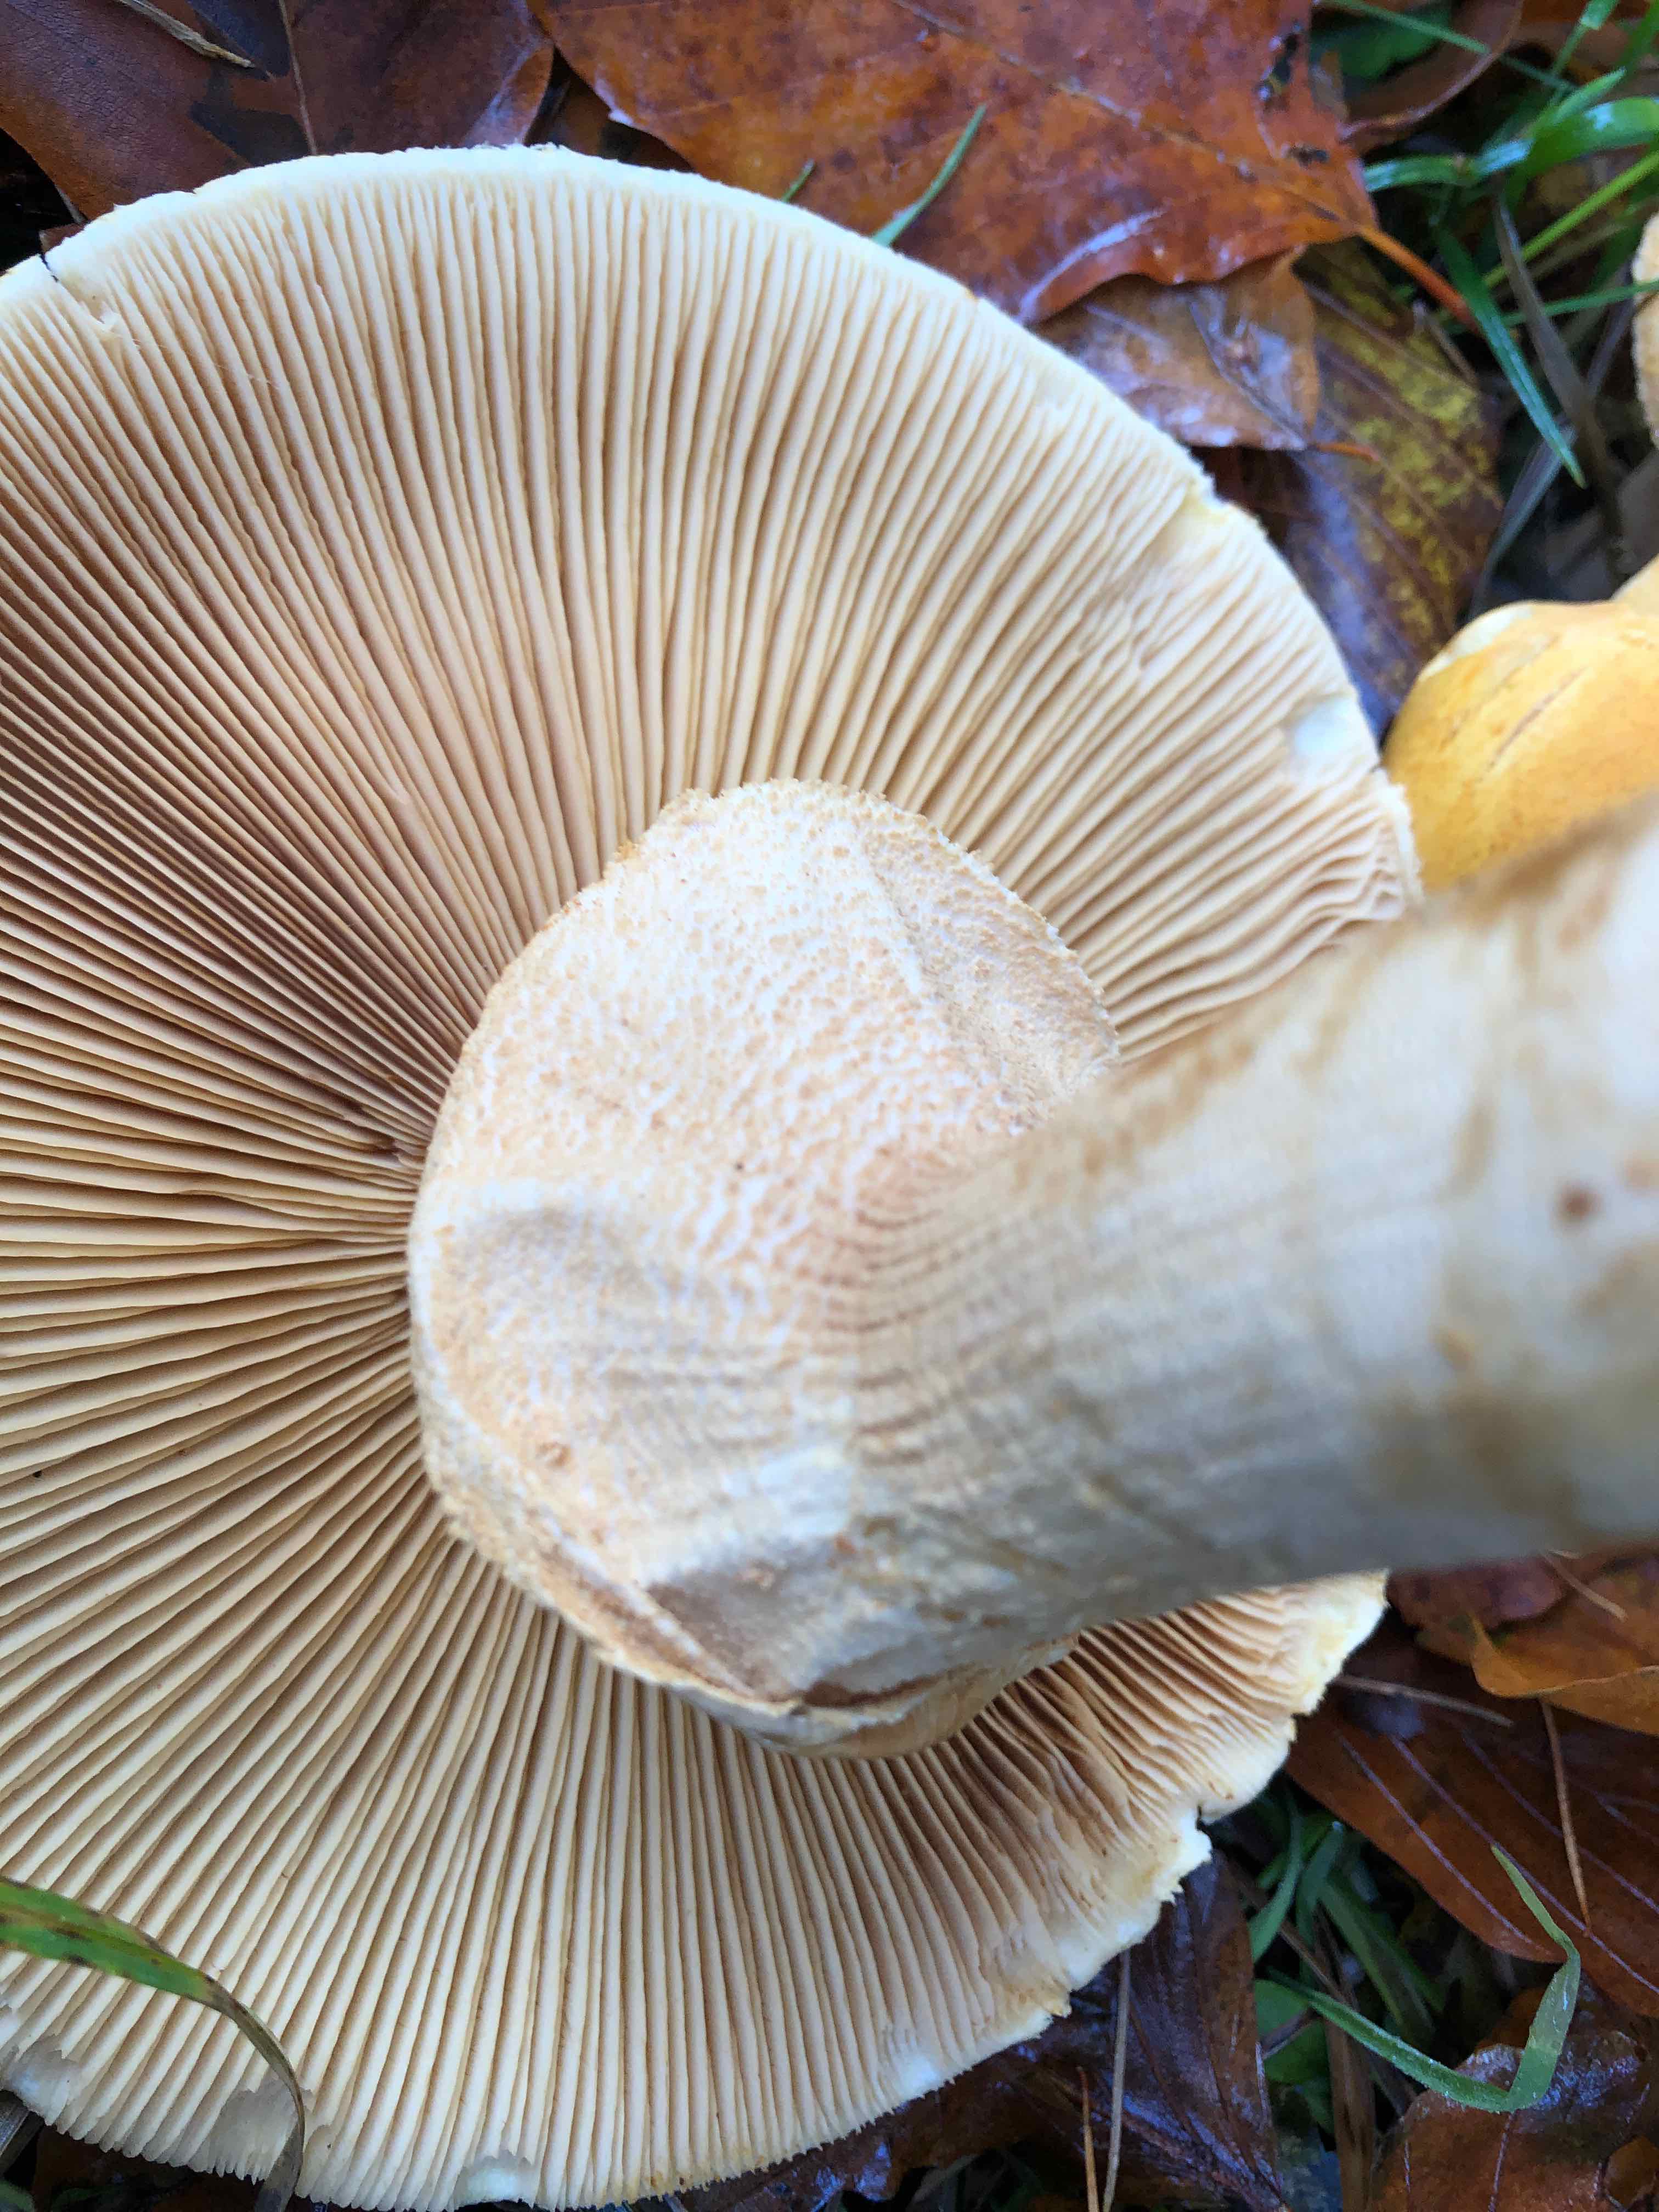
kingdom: Fungi
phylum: Basidiomycota
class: Agaricomycetes
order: Agaricales
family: Tricholomataceae
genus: Phaeolepiota
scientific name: Phaeolepiota aurea
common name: gyldenhat
